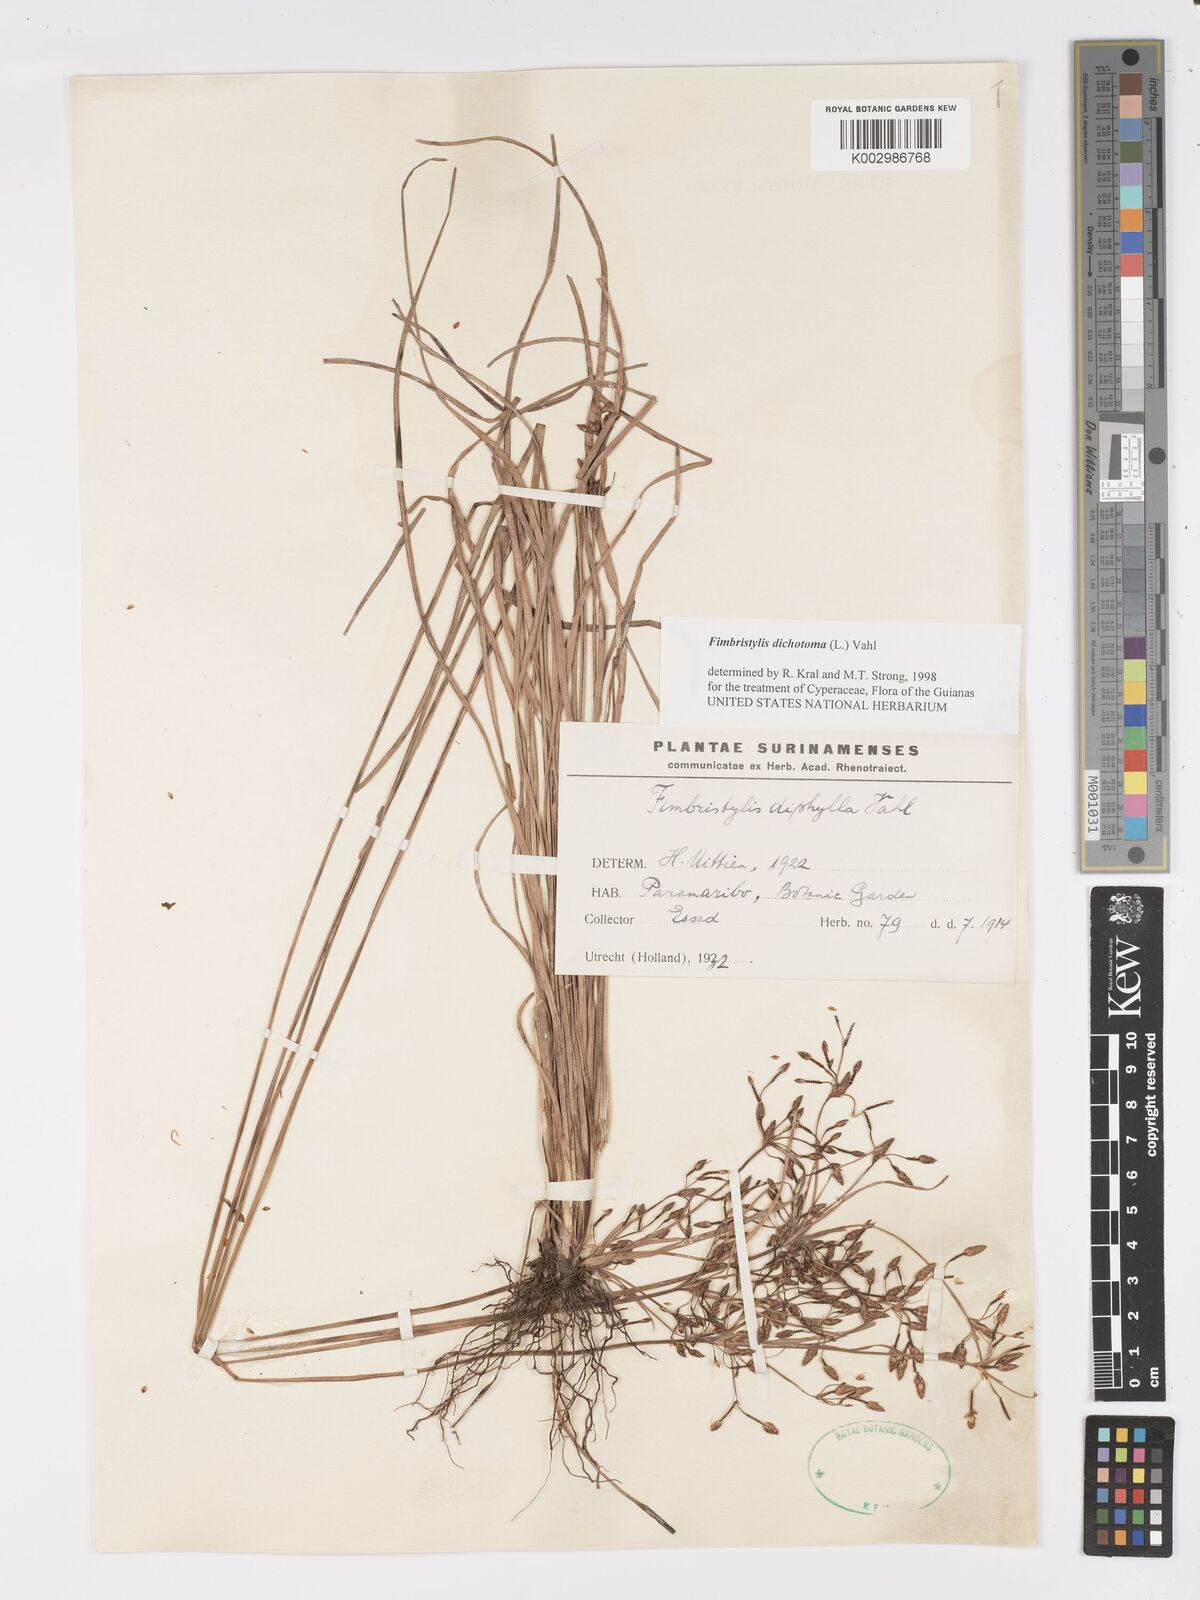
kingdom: Plantae
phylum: Tracheophyta
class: Liliopsida
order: Poales
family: Cyperaceae
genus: Fimbristylis
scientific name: Fimbristylis dichotoma
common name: Forked fimbry
